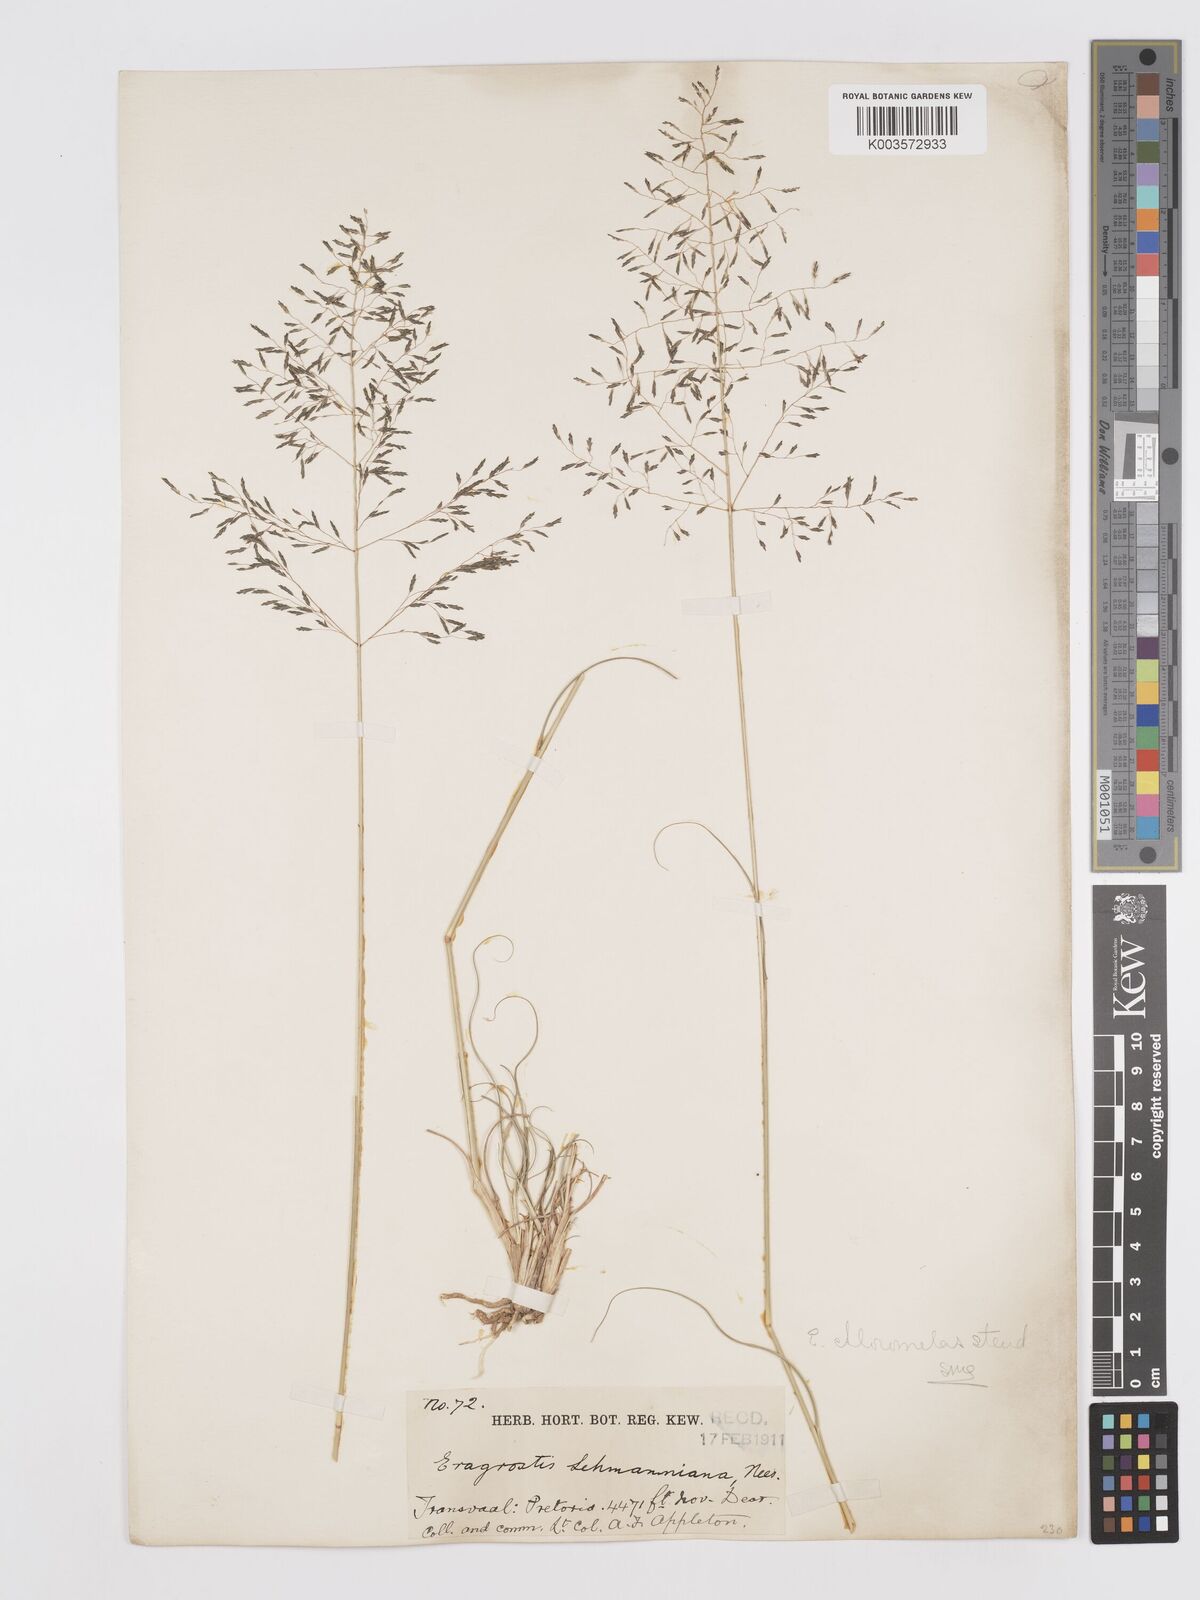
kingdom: Plantae
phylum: Tracheophyta
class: Liliopsida
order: Poales
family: Poaceae
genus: Eragrostis
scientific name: Eragrostis curvula
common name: African love-grass
